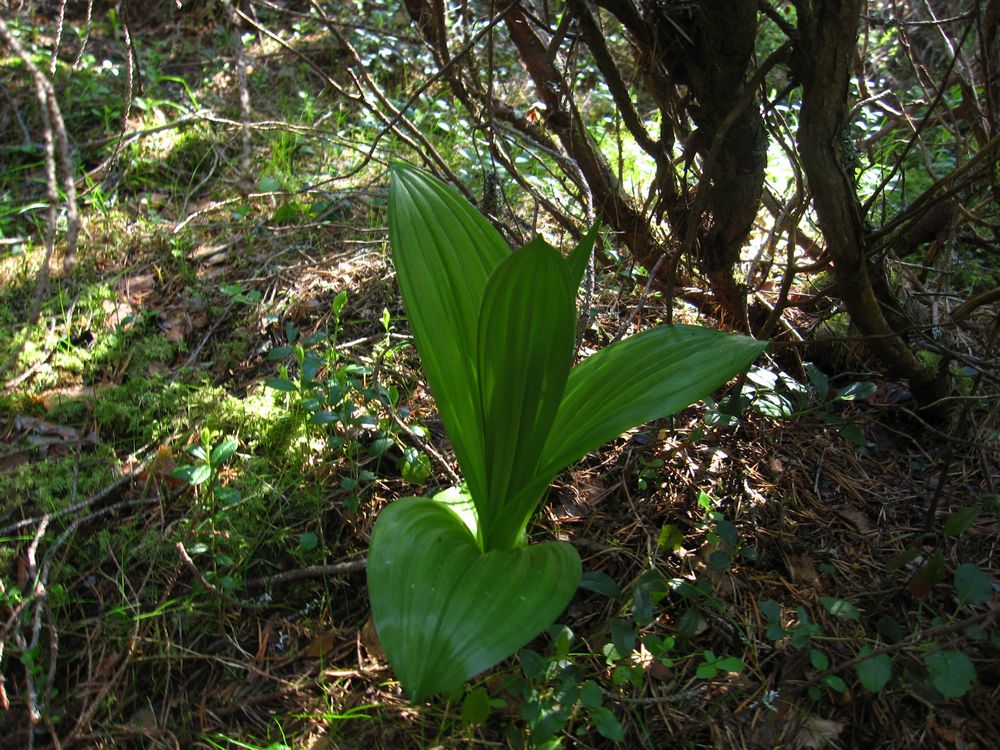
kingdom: Plantae
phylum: Tracheophyta
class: Liliopsida
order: Liliales
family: Liliaceae
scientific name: Liliaceae
